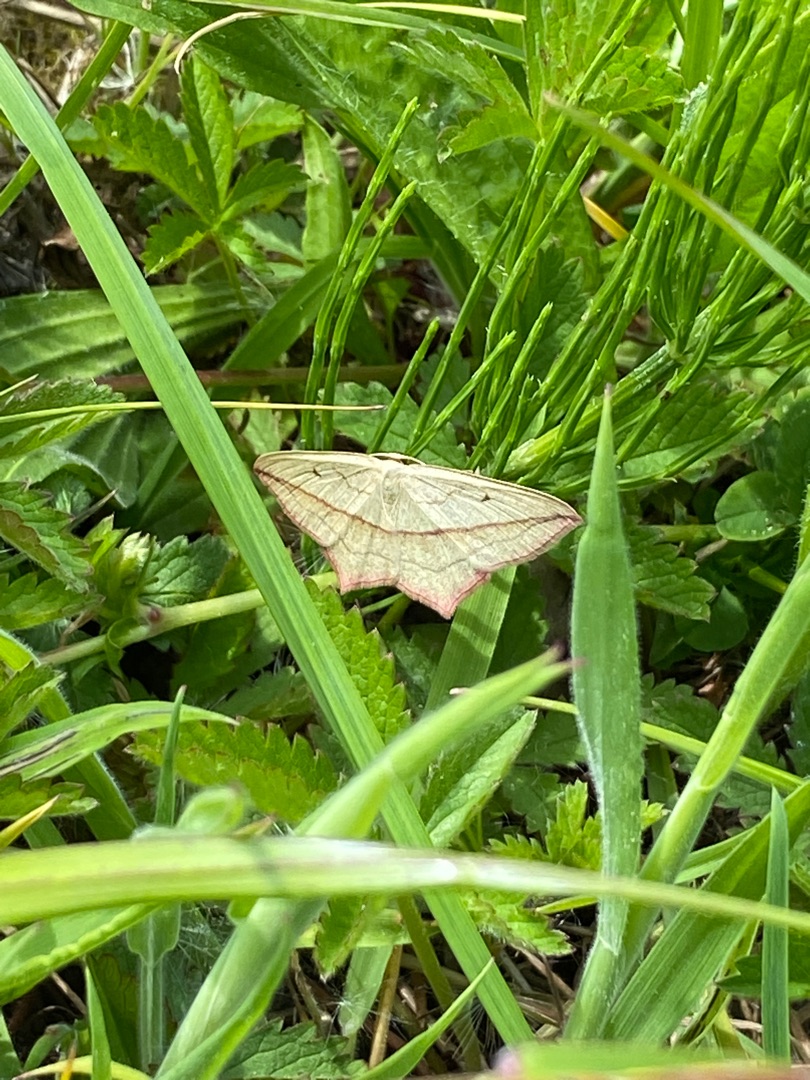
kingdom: Animalia
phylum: Arthropoda
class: Insecta
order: Lepidoptera
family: Geometridae
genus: Timandra
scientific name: Timandra comae
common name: Gul syremåler
